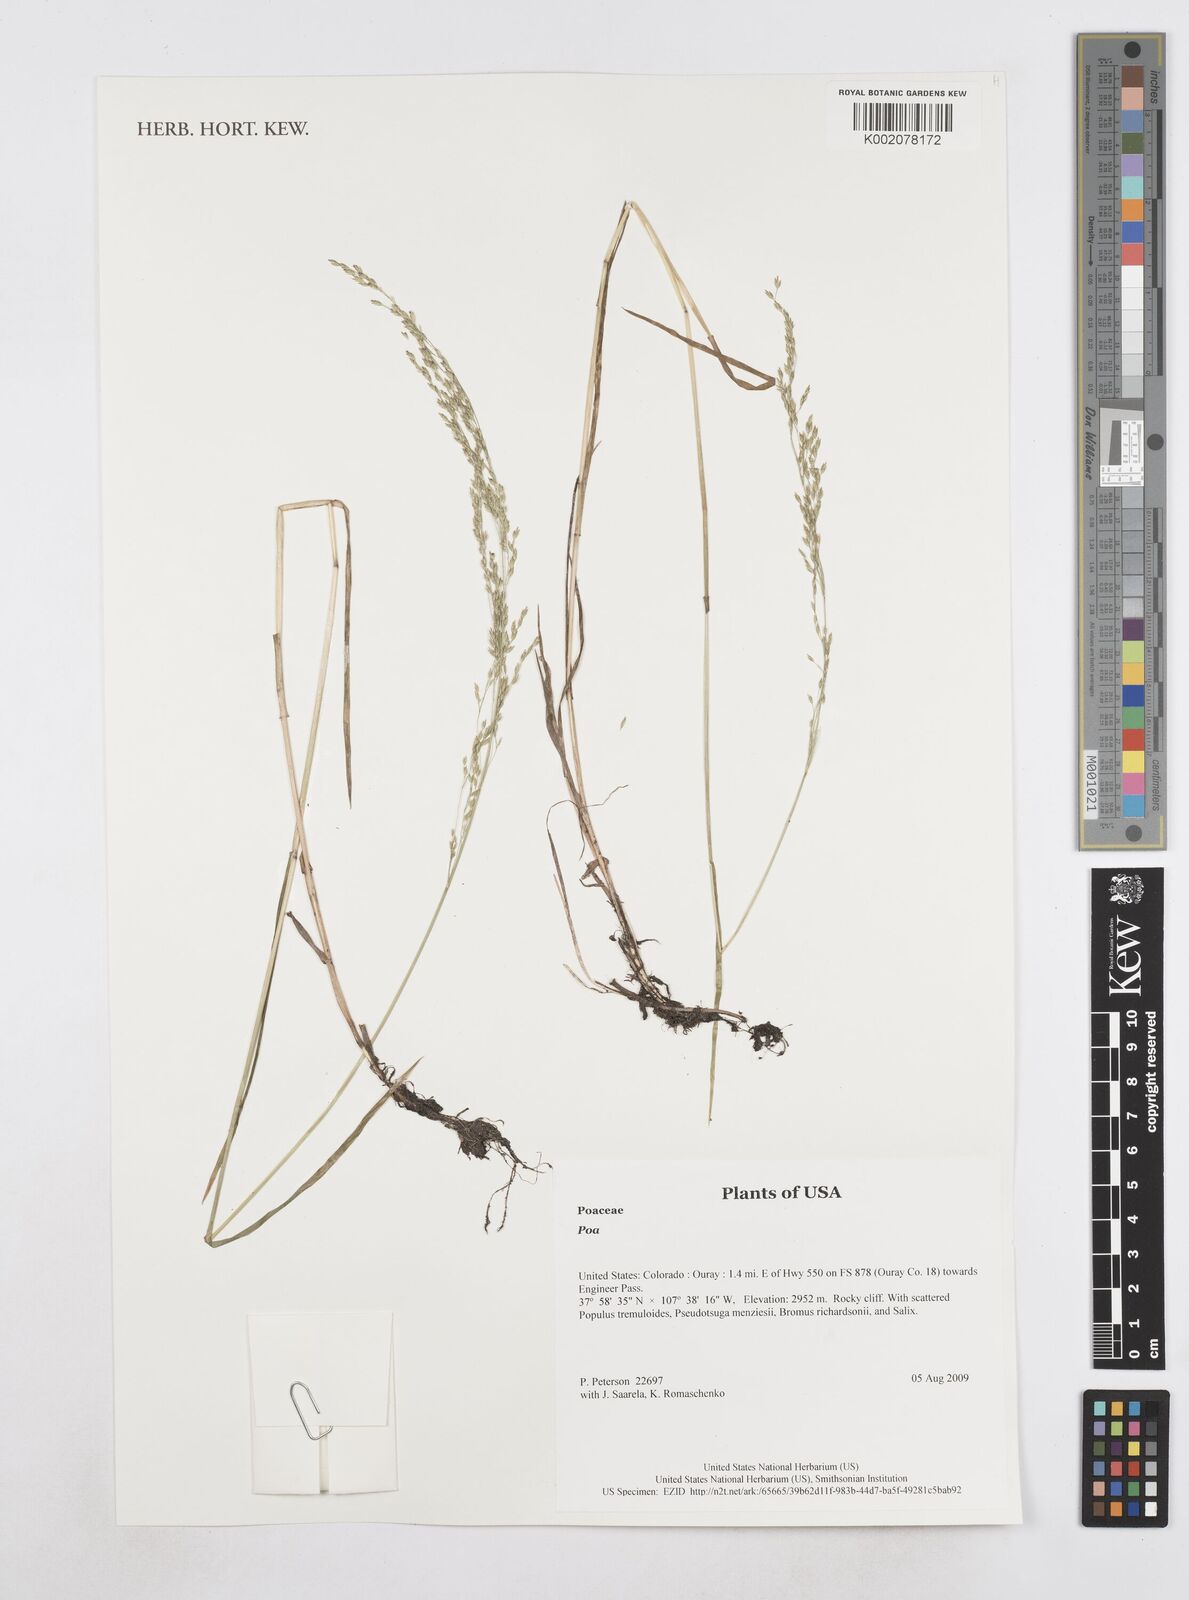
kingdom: Plantae
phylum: Tracheophyta
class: Liliopsida
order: Poales
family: Poaceae
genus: Poa
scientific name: Poa
